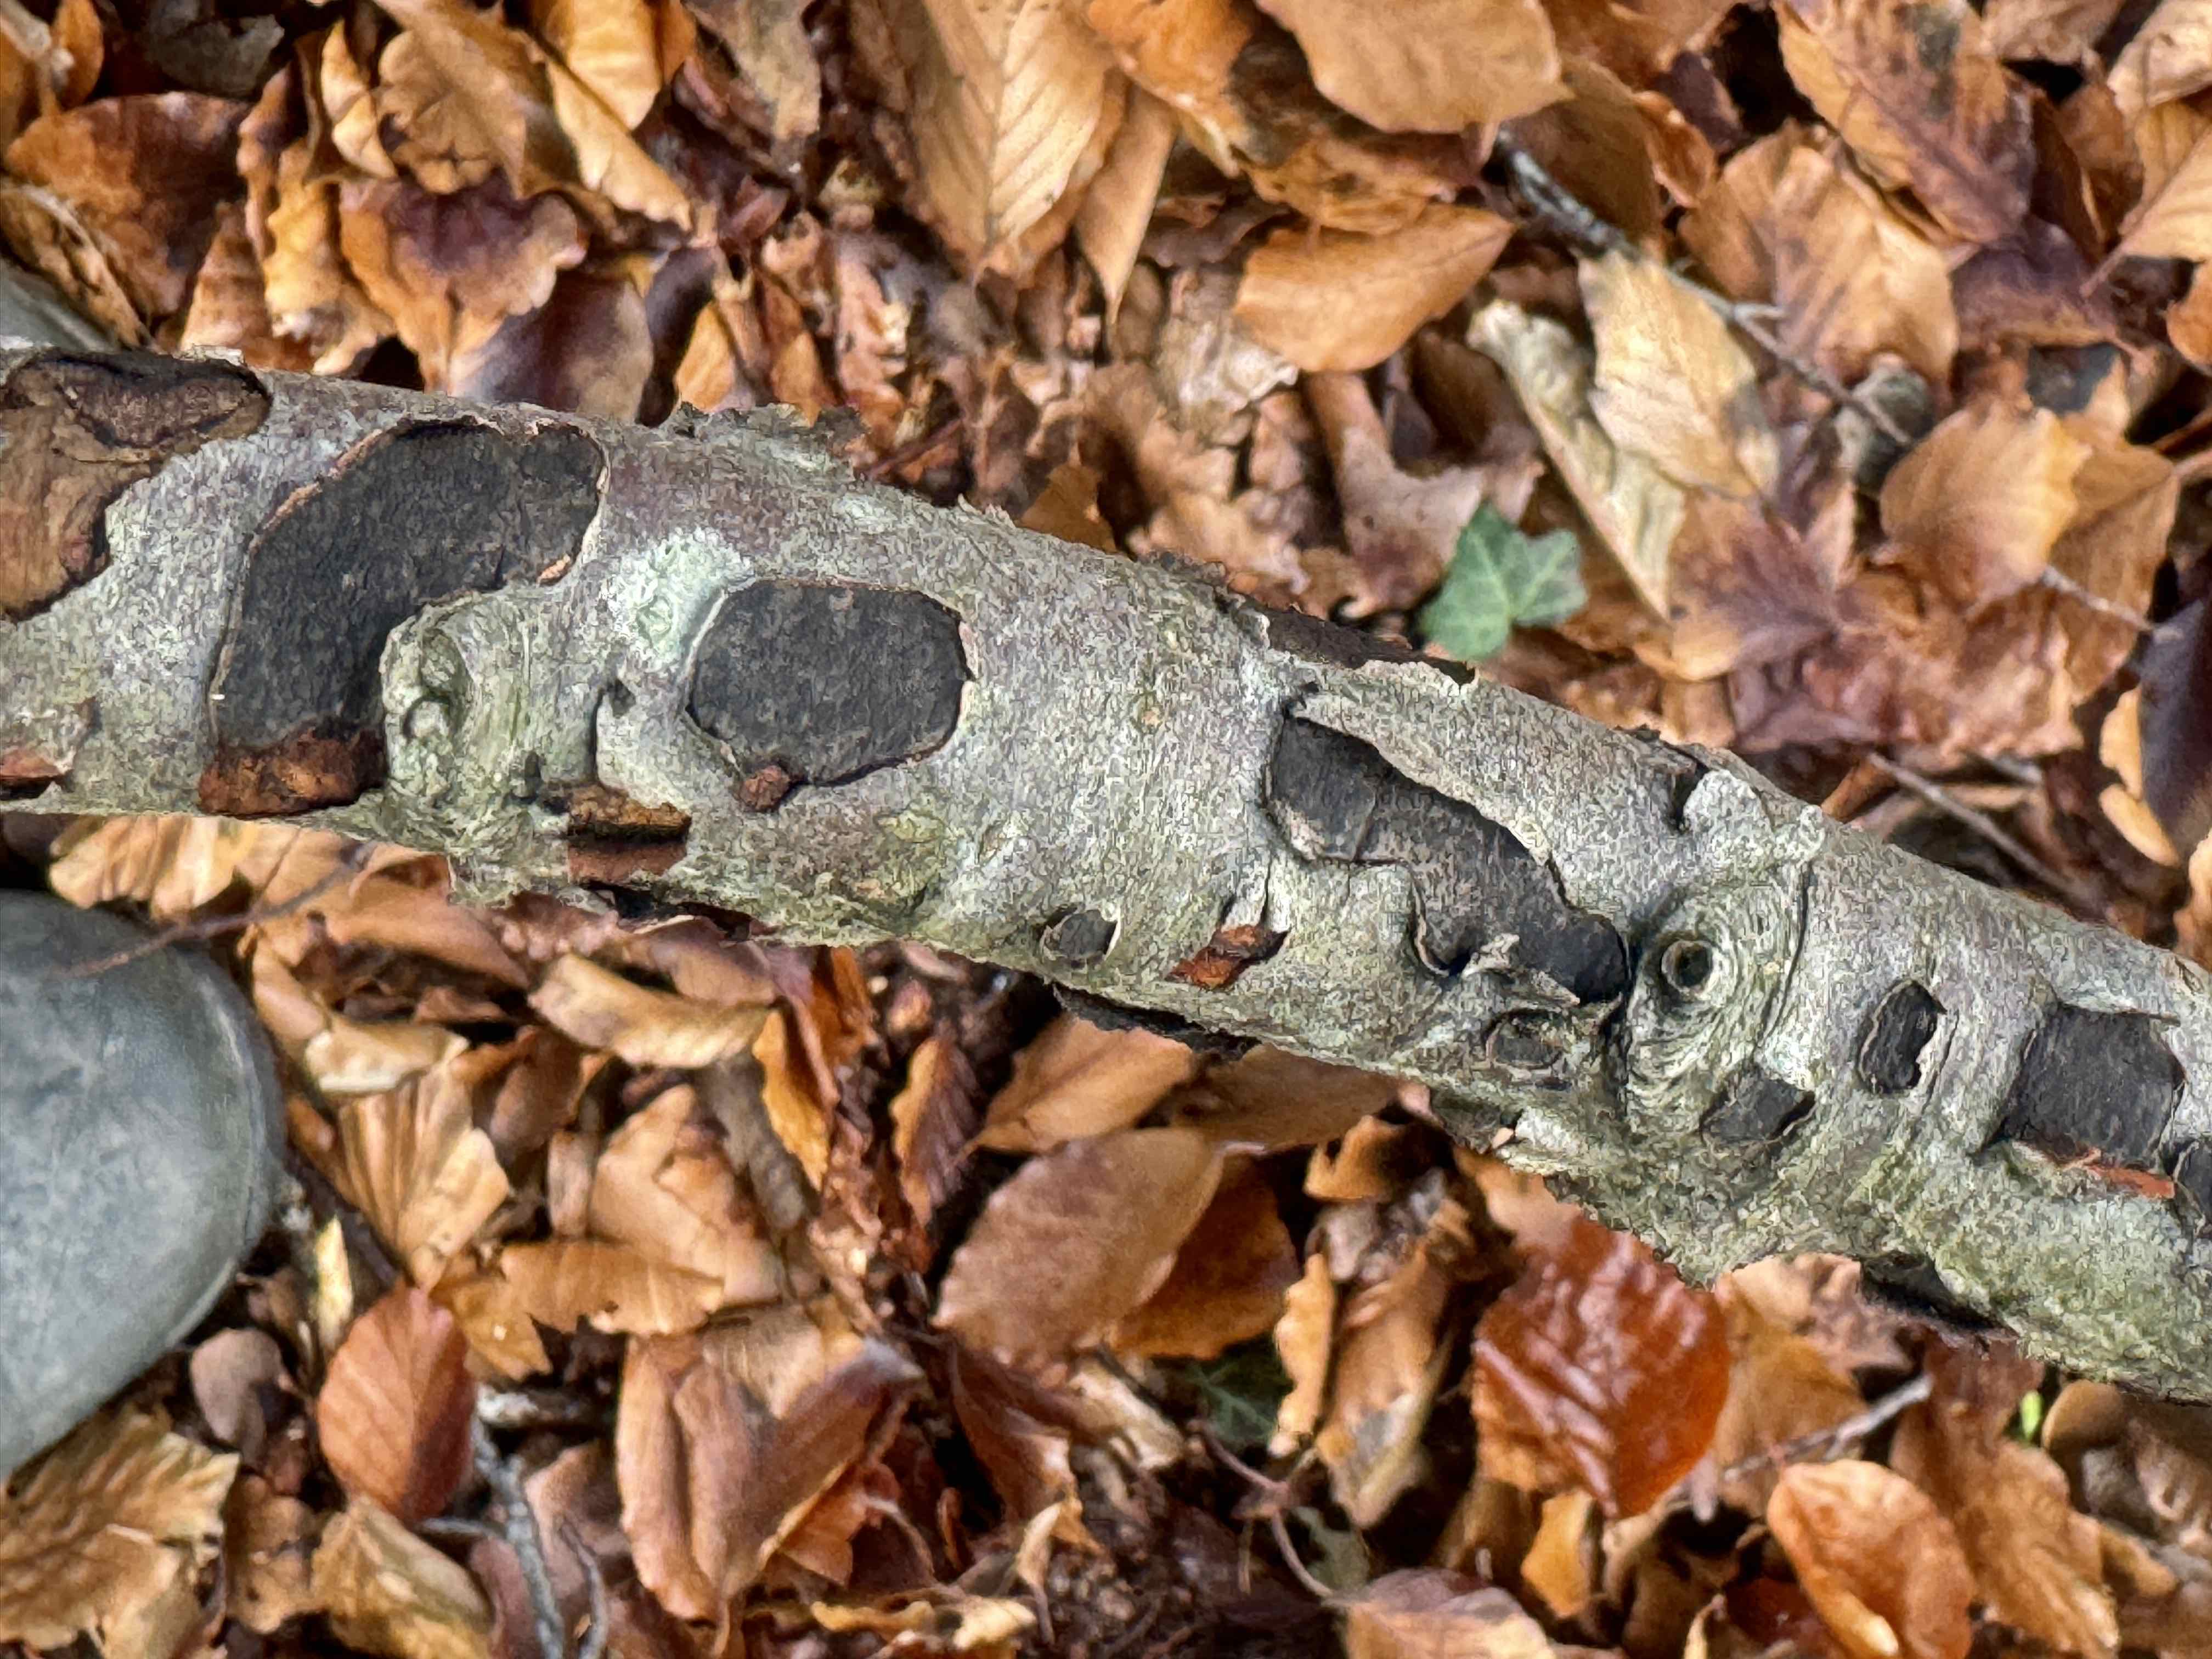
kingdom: Fungi
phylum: Ascomycota
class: Sordariomycetes
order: Xylariales
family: Graphostromataceae
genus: Biscogniauxia
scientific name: Biscogniauxia nummularia
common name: bøge-kulskive
